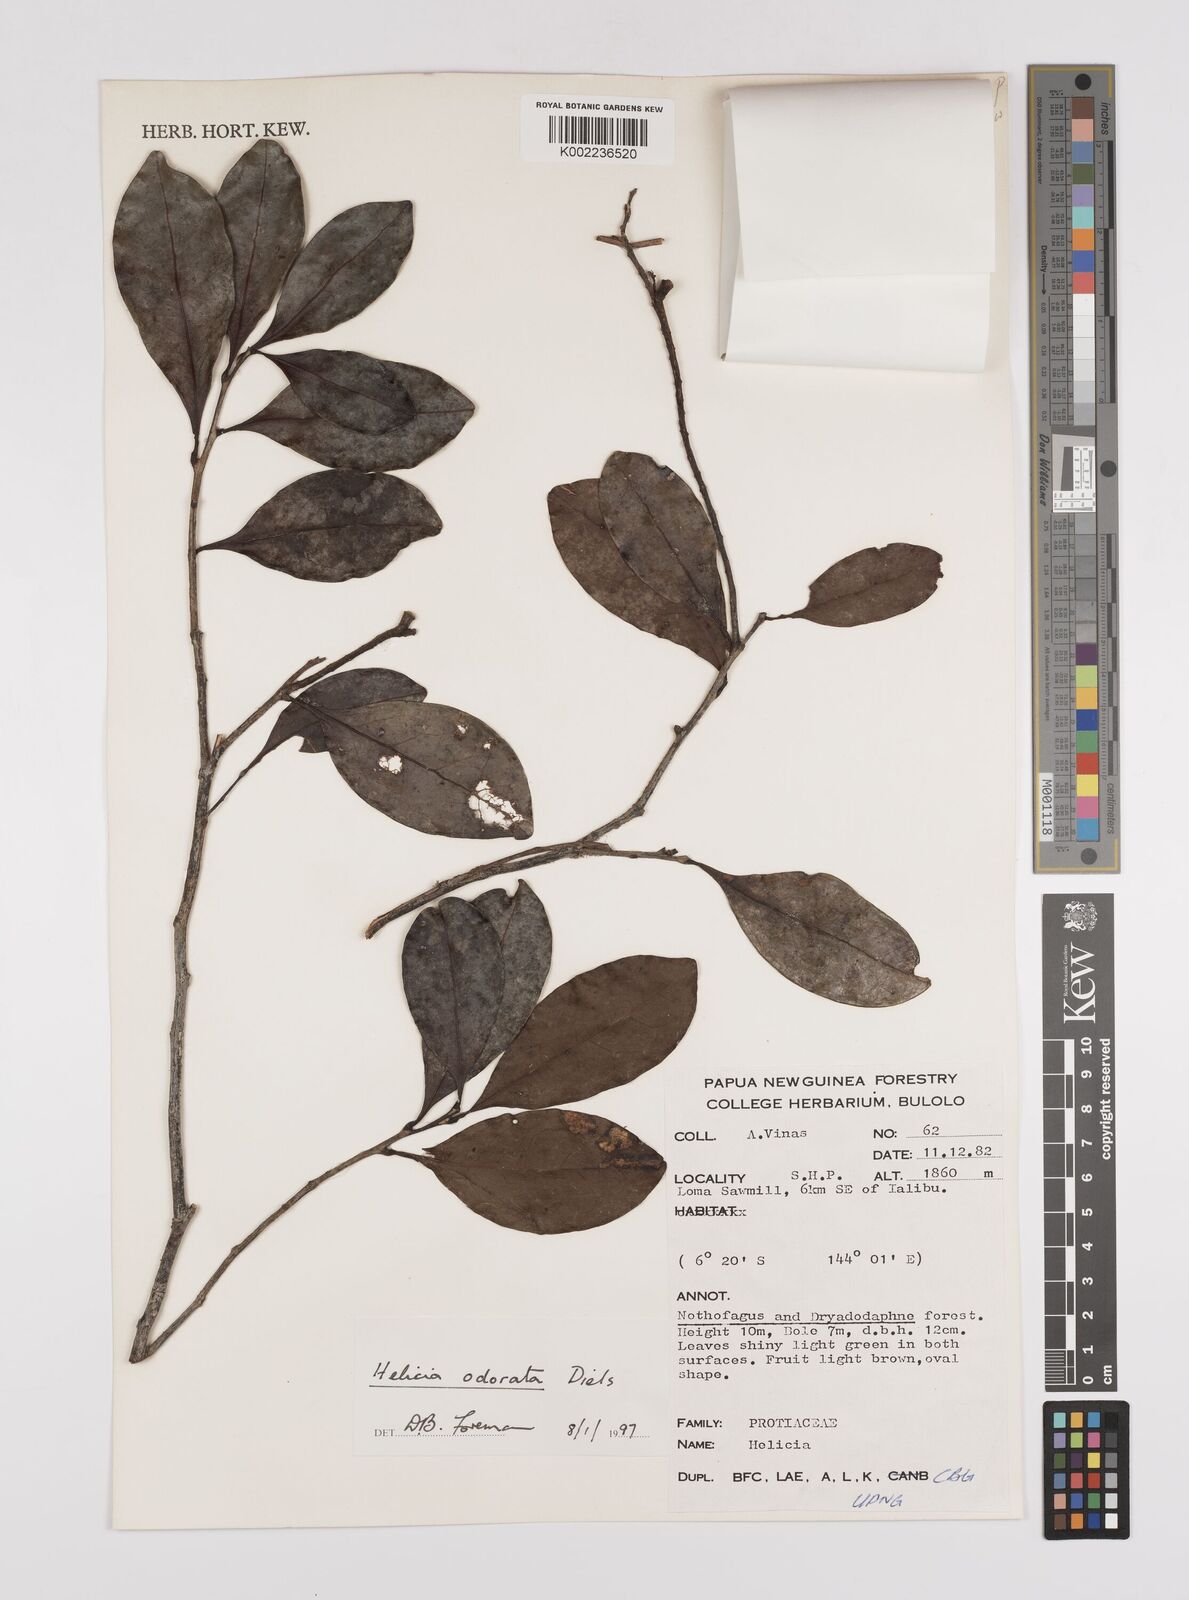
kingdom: Plantae
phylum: Tracheophyta
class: Magnoliopsida
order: Proteales
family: Proteaceae
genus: Helicia
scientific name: Helicia odorata
